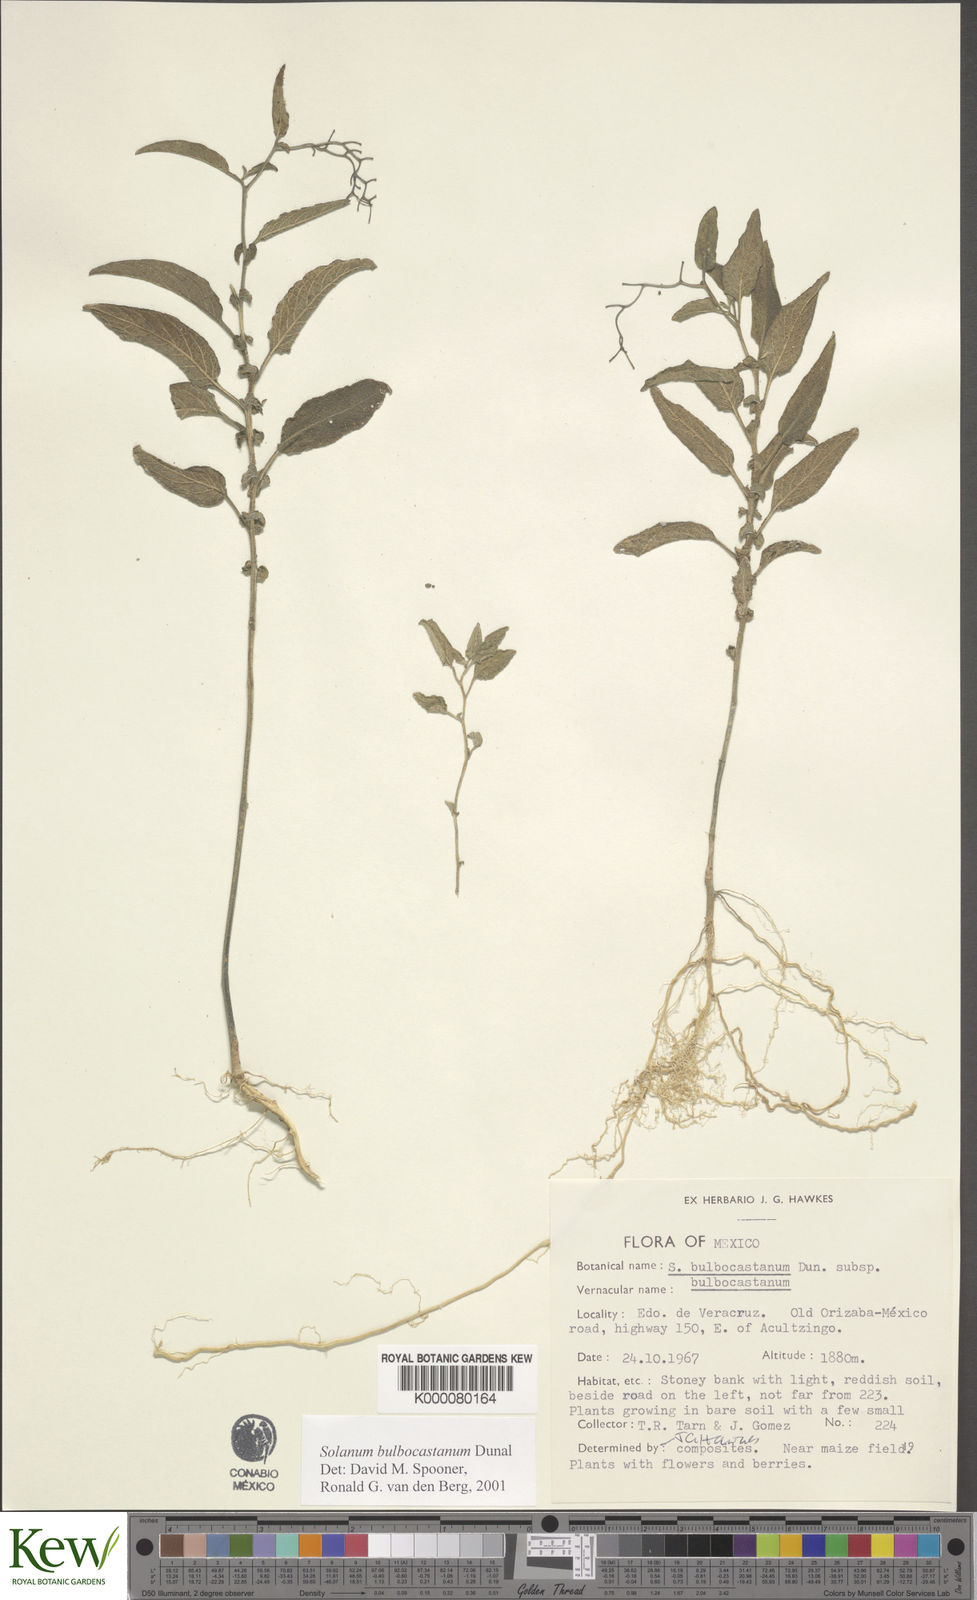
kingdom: Plantae
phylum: Tracheophyta
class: Magnoliopsida
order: Solanales
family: Solanaceae
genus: Solanum
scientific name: Solanum bulbocastanum
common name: Ornamental nightshade
